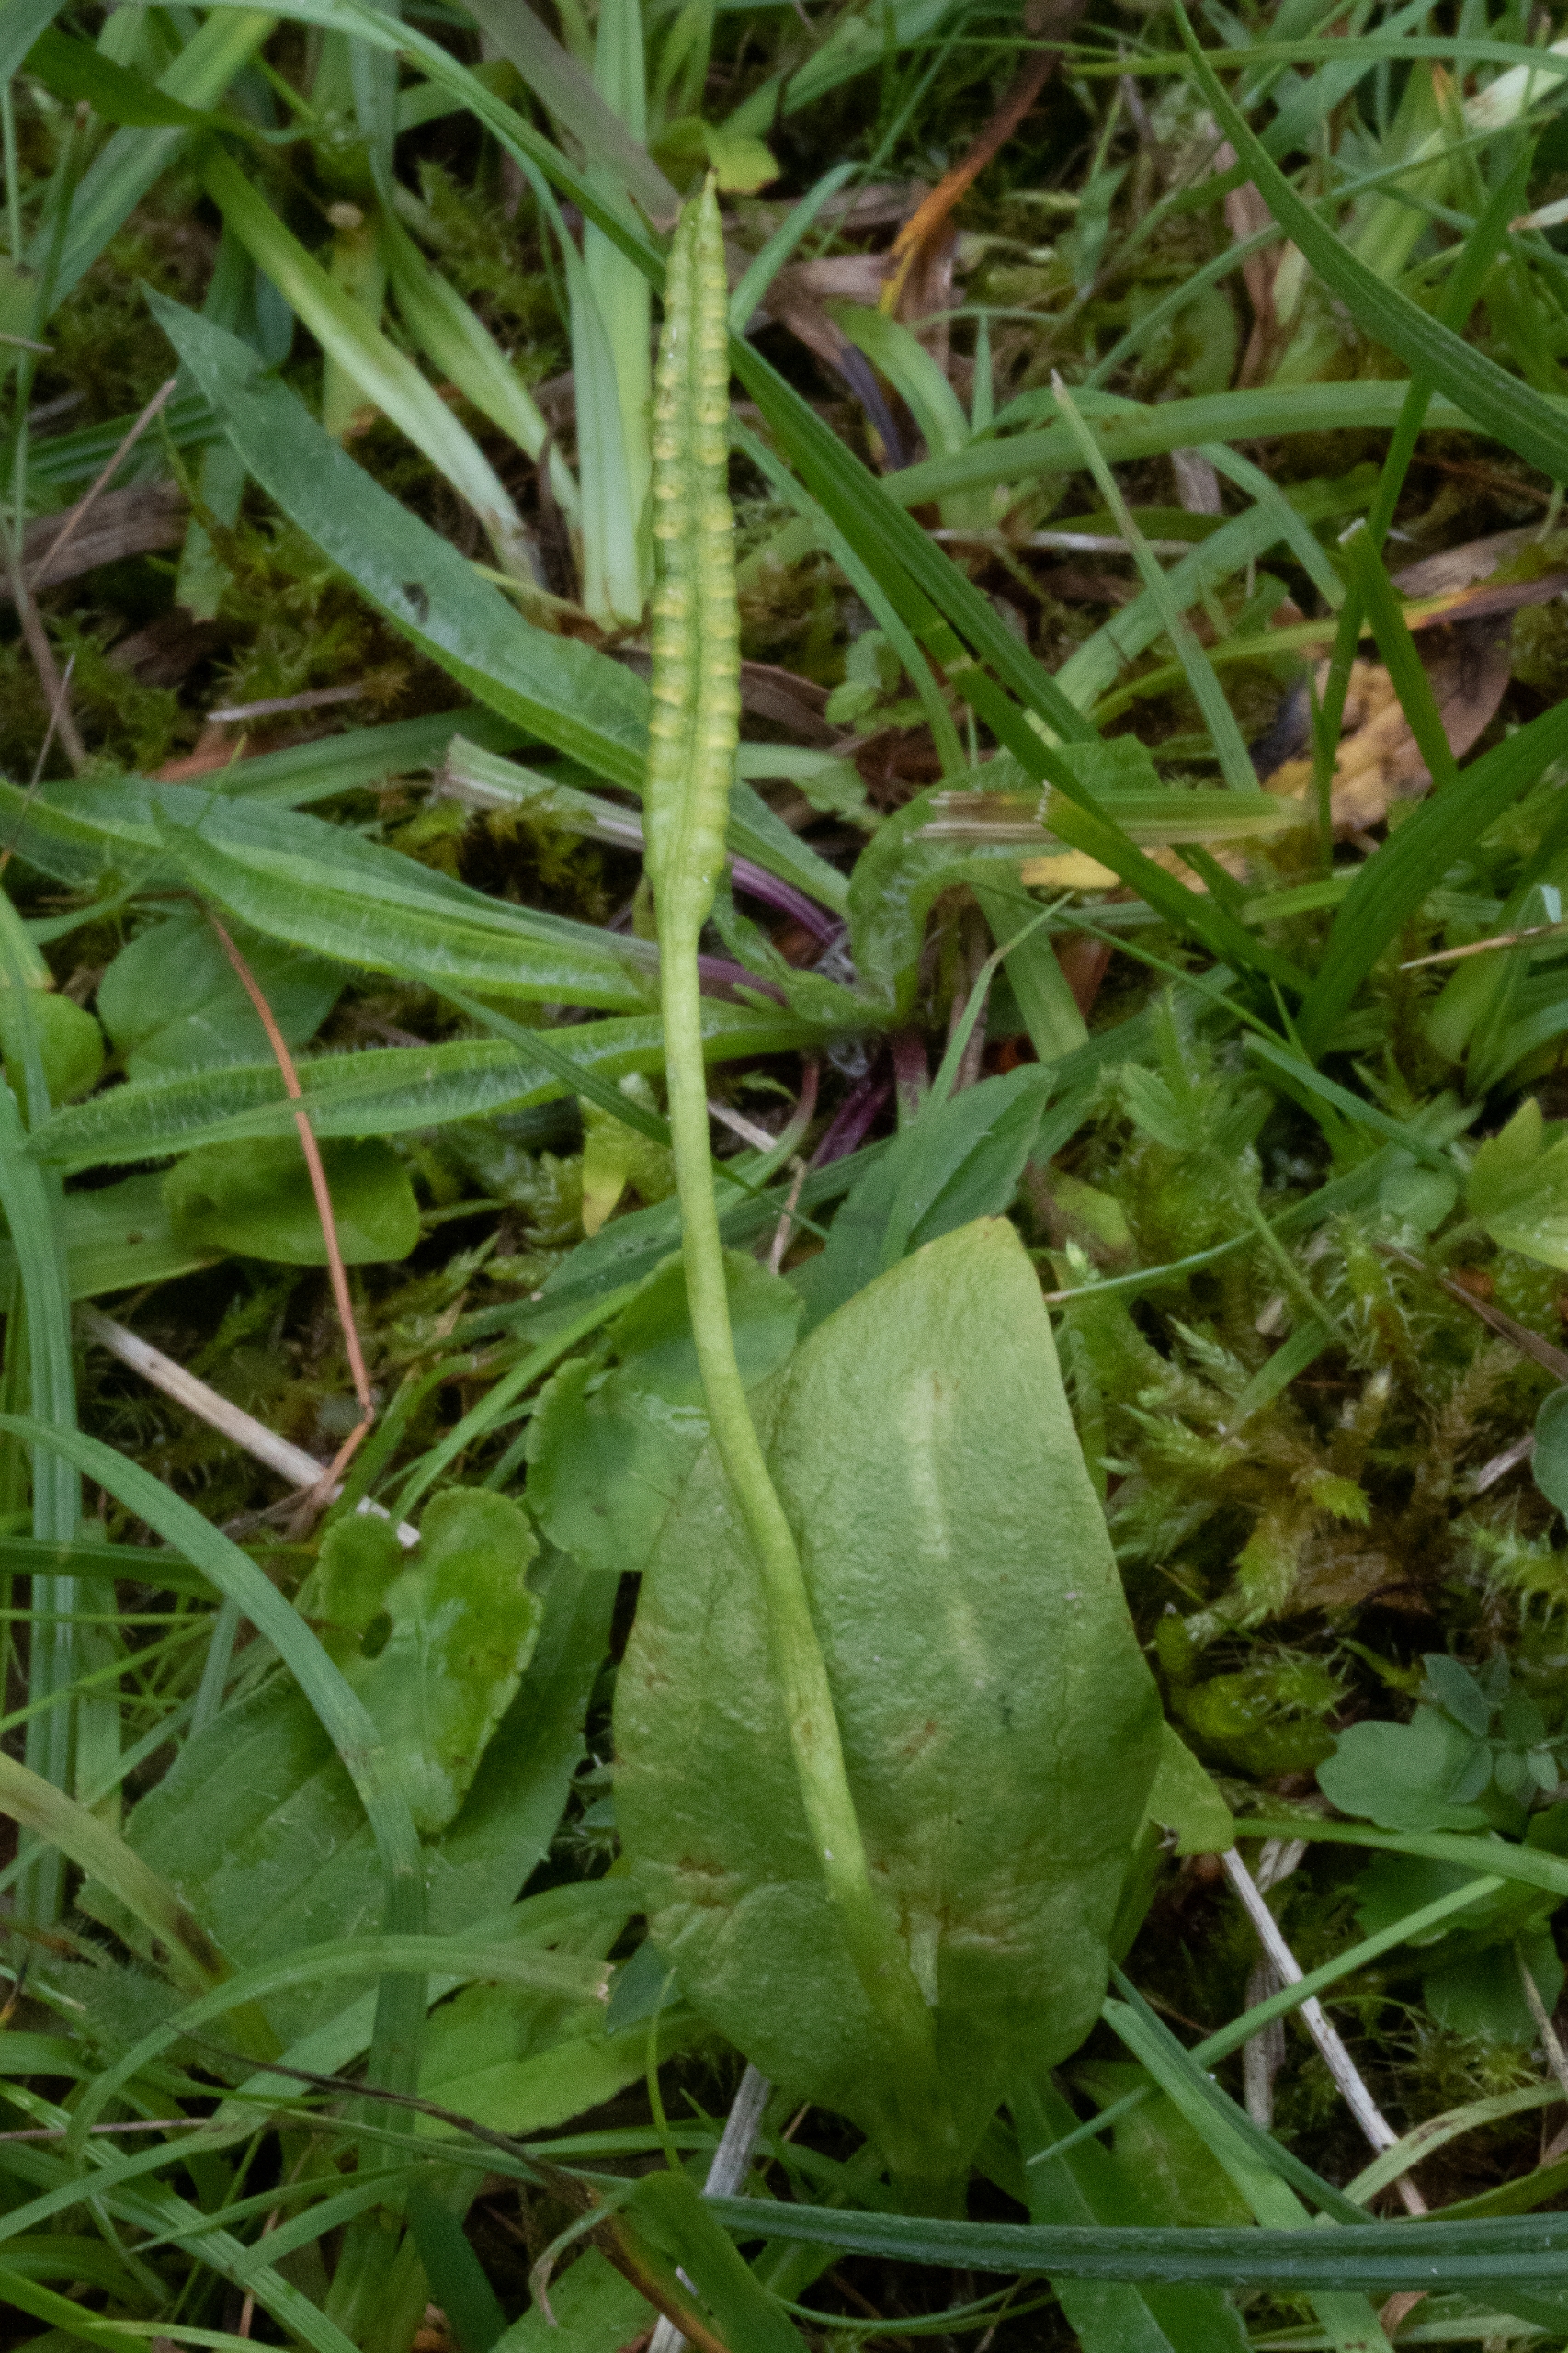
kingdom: Plantae
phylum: Tracheophyta
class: Polypodiopsida
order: Ophioglossales
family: Ophioglossaceae
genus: Ophioglossum
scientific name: Ophioglossum vulgatum
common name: Slangetunge
